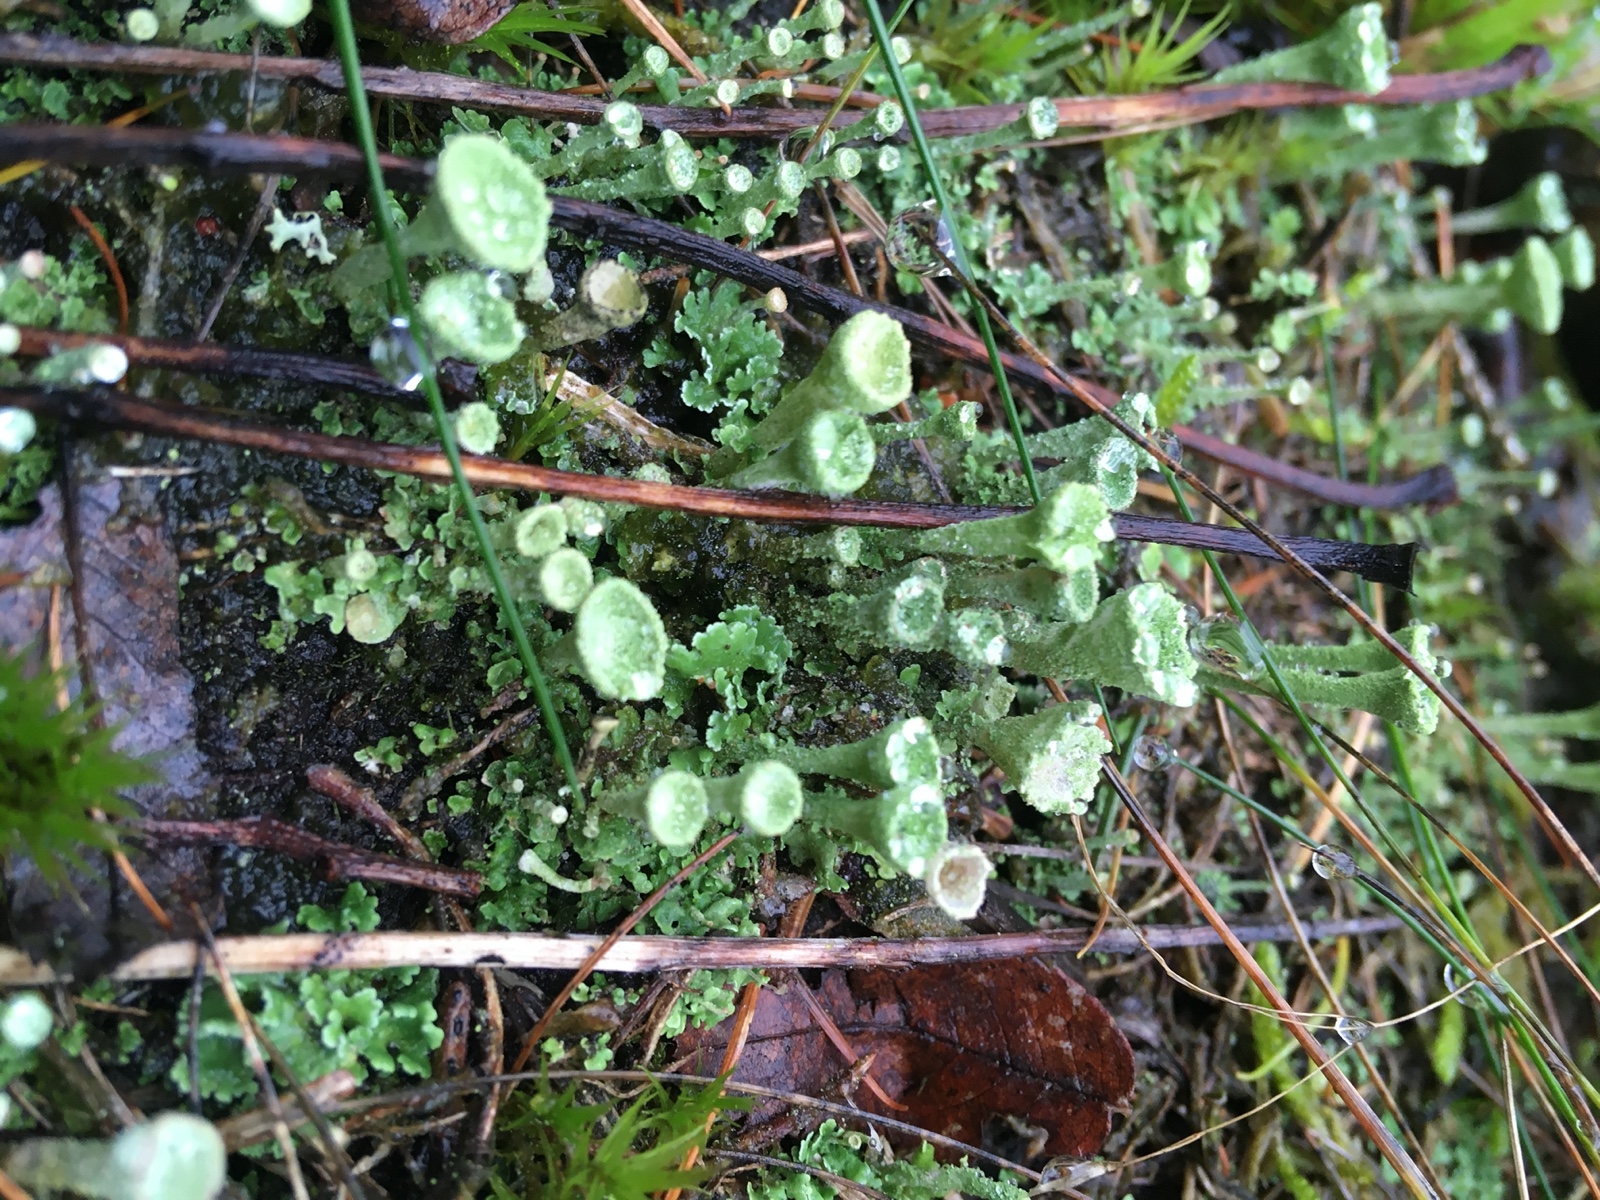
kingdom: Fungi
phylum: Ascomycota
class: Lecanoromycetes
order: Lecanorales
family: Cladoniaceae
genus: Cladonia
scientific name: Cladonia
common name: brungrøn bægerlav
